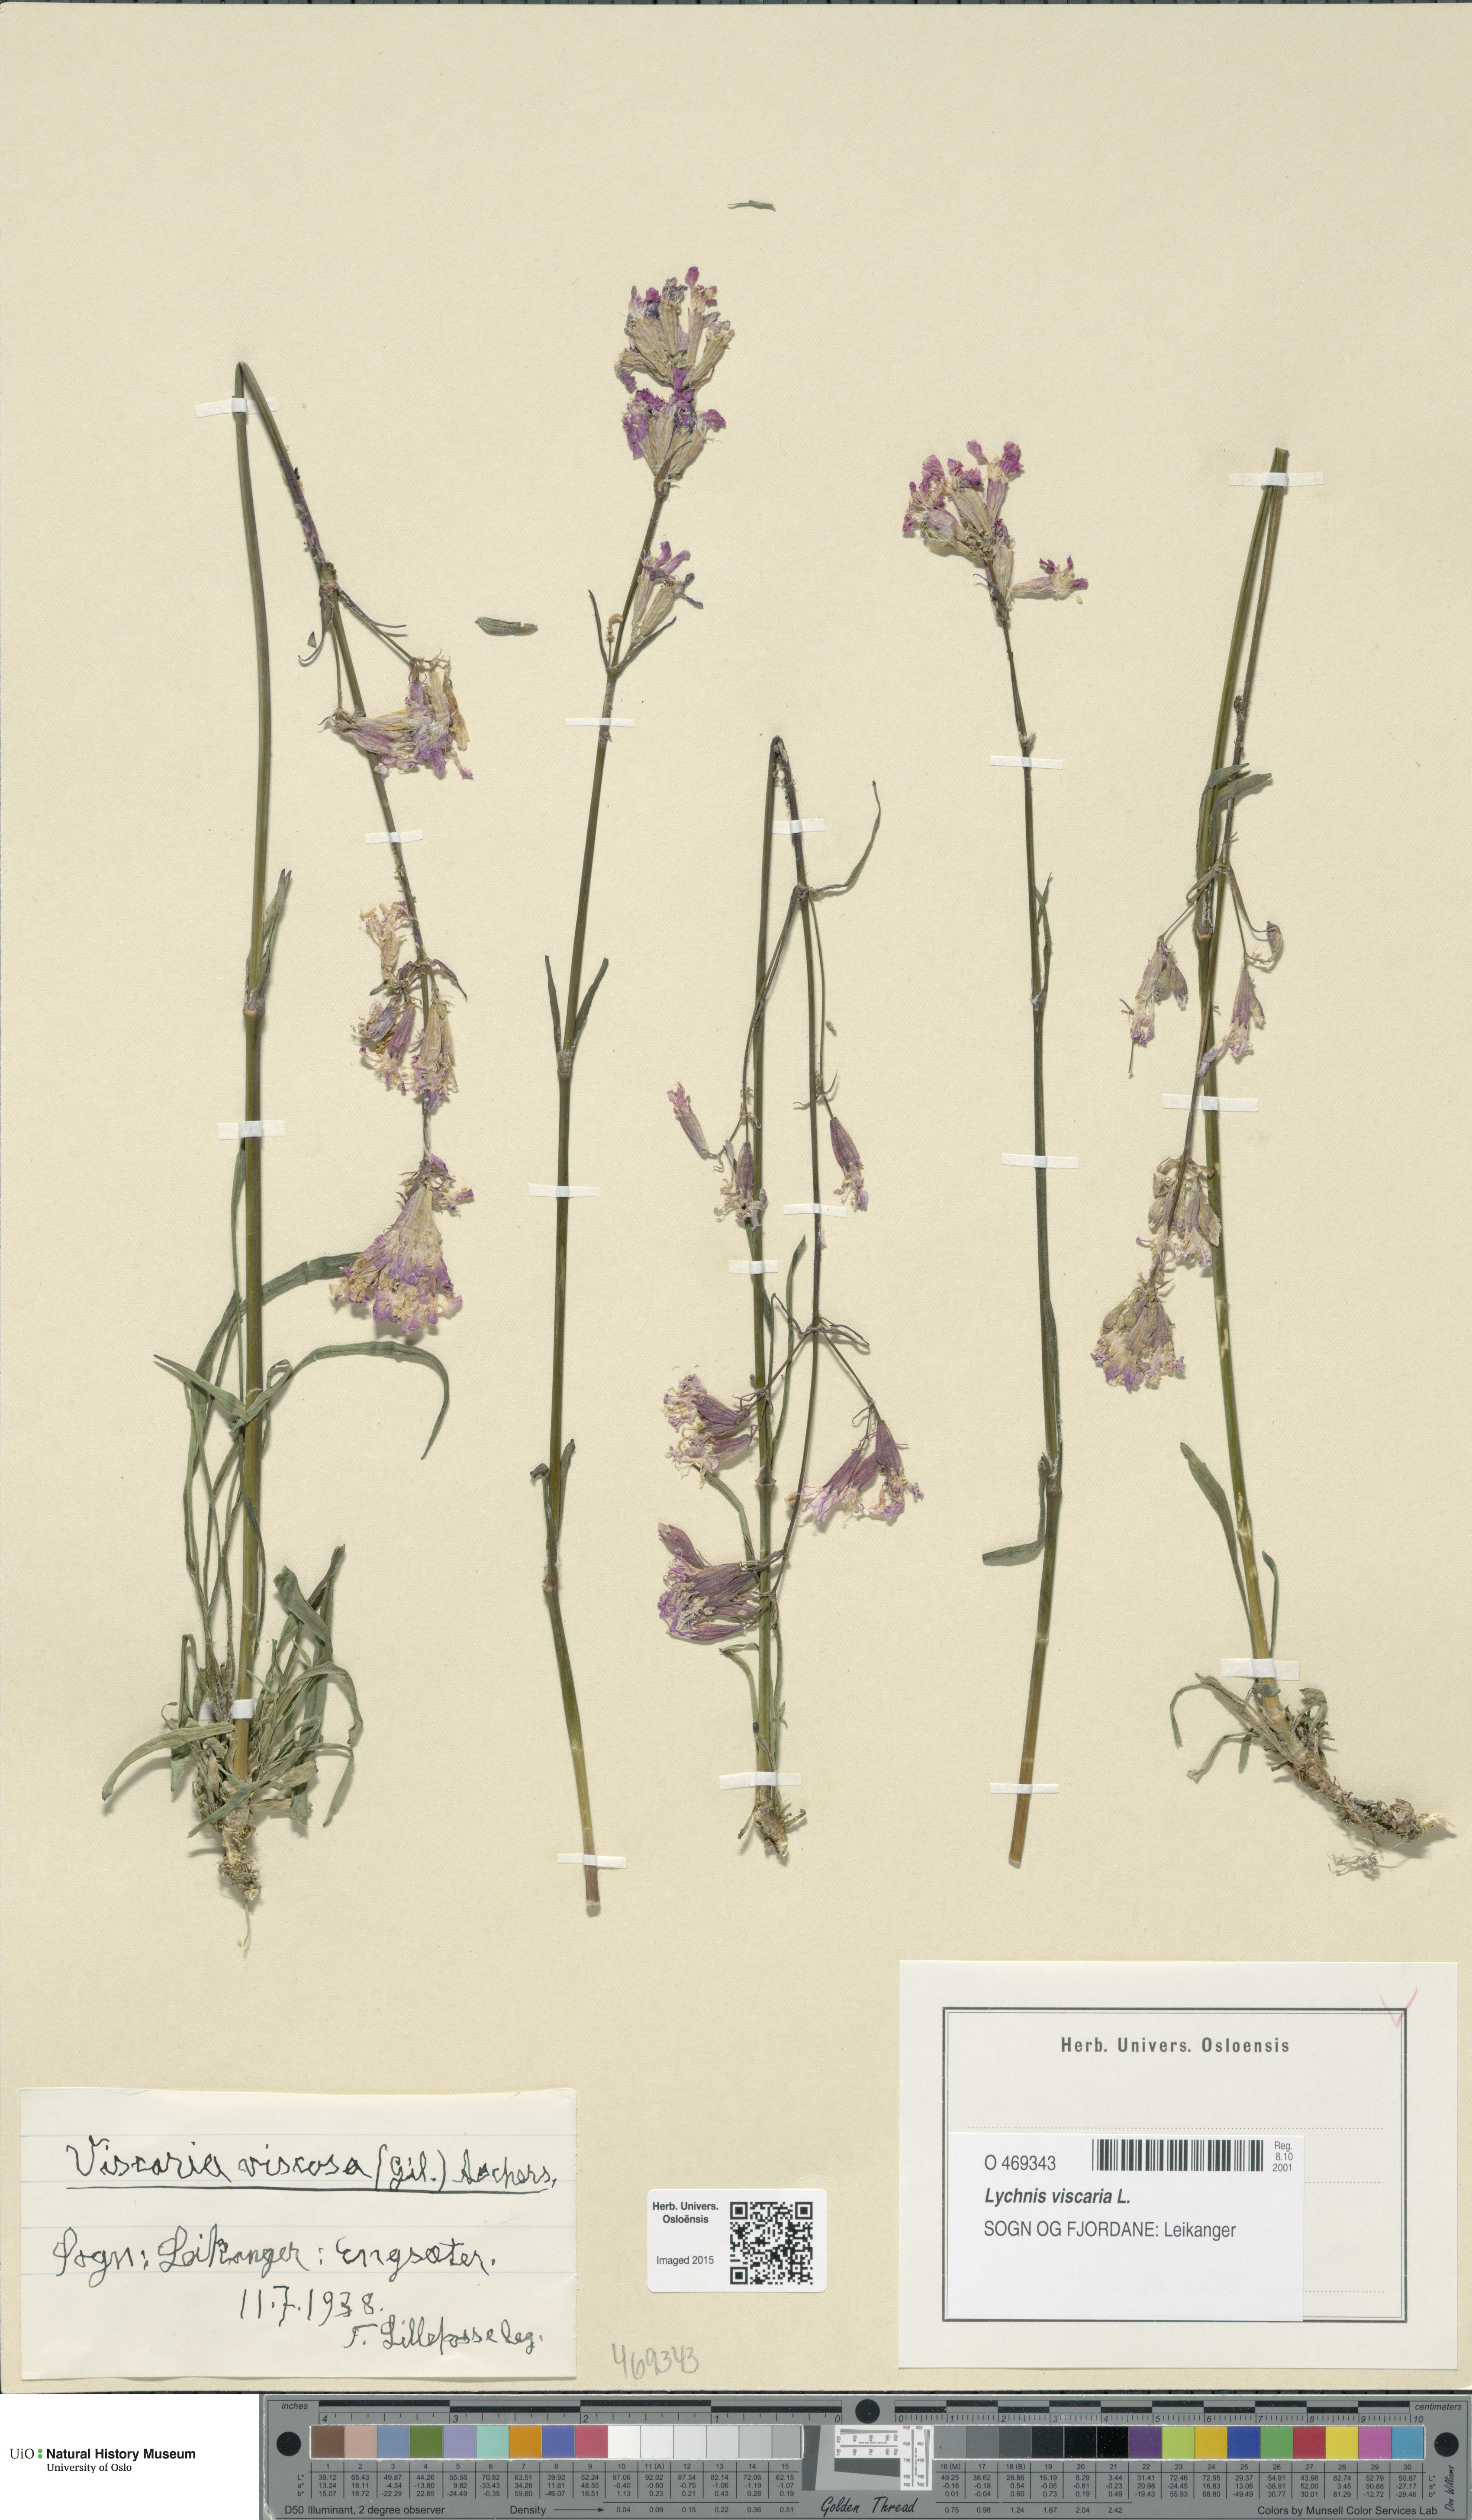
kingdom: Plantae
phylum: Tracheophyta
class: Magnoliopsida
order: Caryophyllales
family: Caryophyllaceae
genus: Viscaria
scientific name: Viscaria vulgaris
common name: Clammy campion
